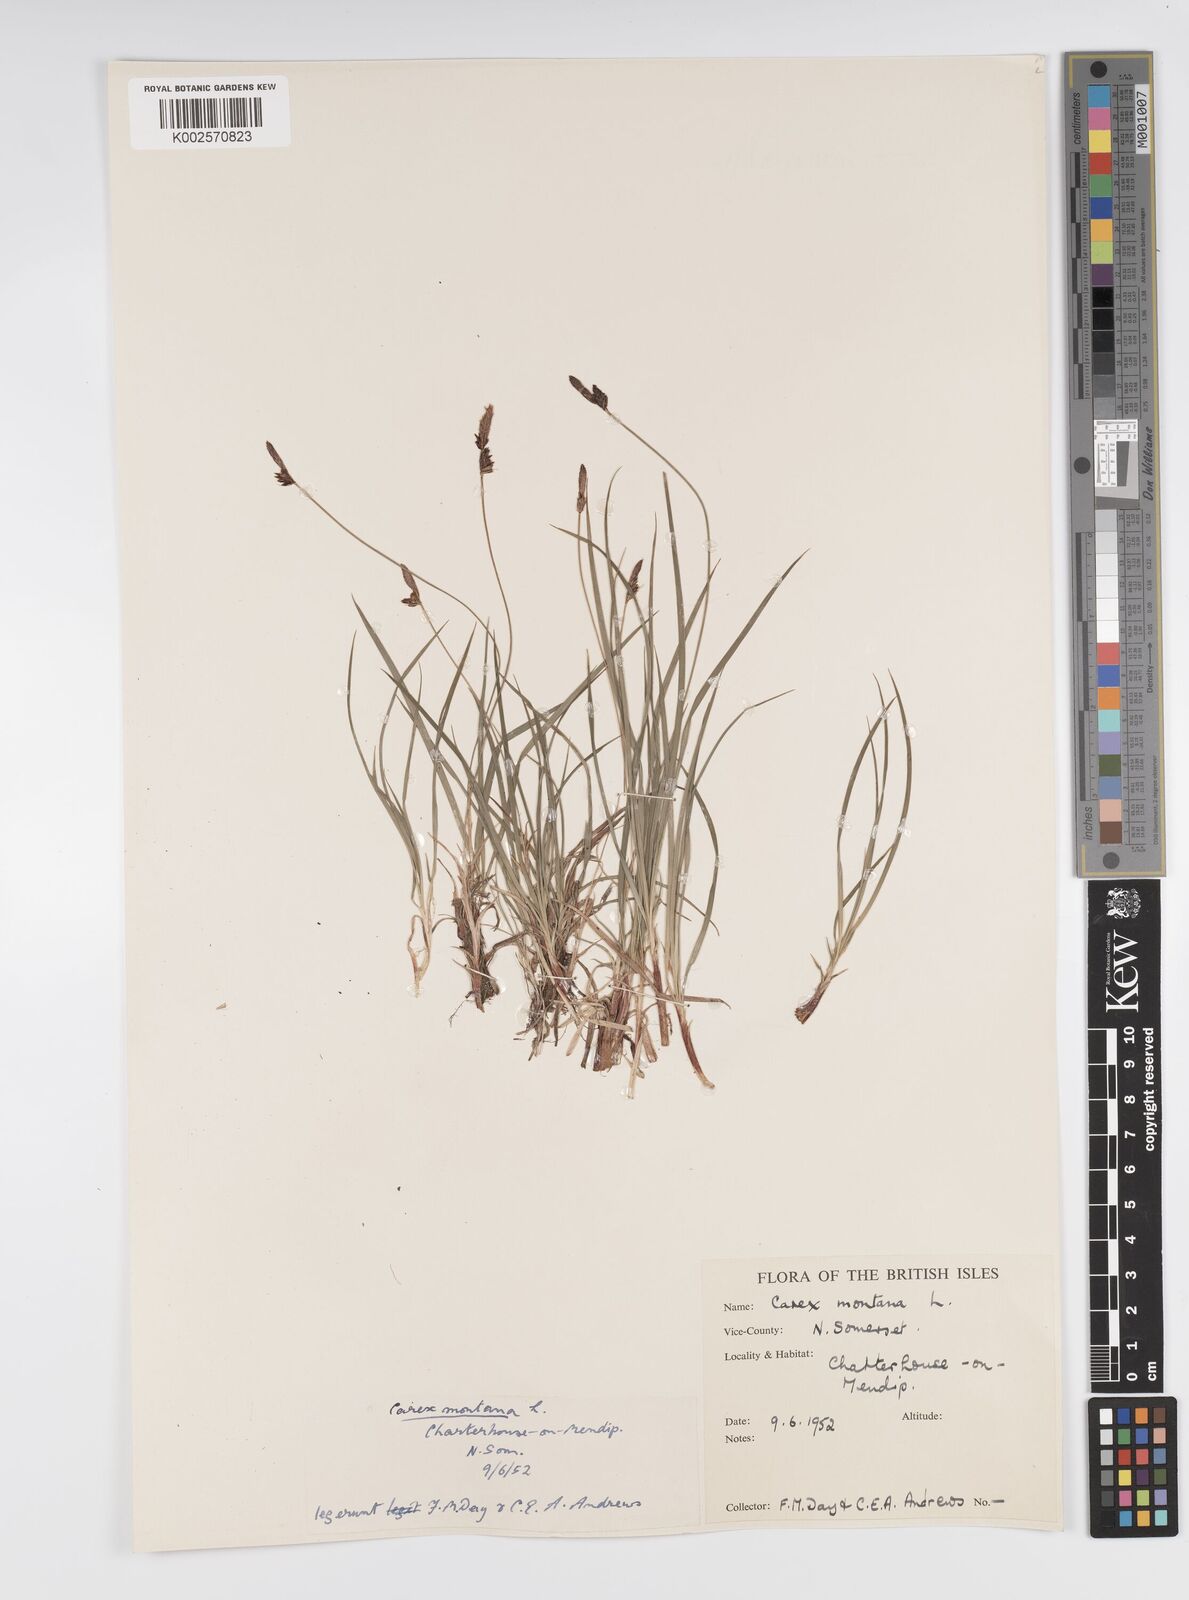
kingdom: Plantae
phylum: Tracheophyta
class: Liliopsida
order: Poales
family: Cyperaceae
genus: Carex
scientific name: Carex montana
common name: Soft-leaved sedge
